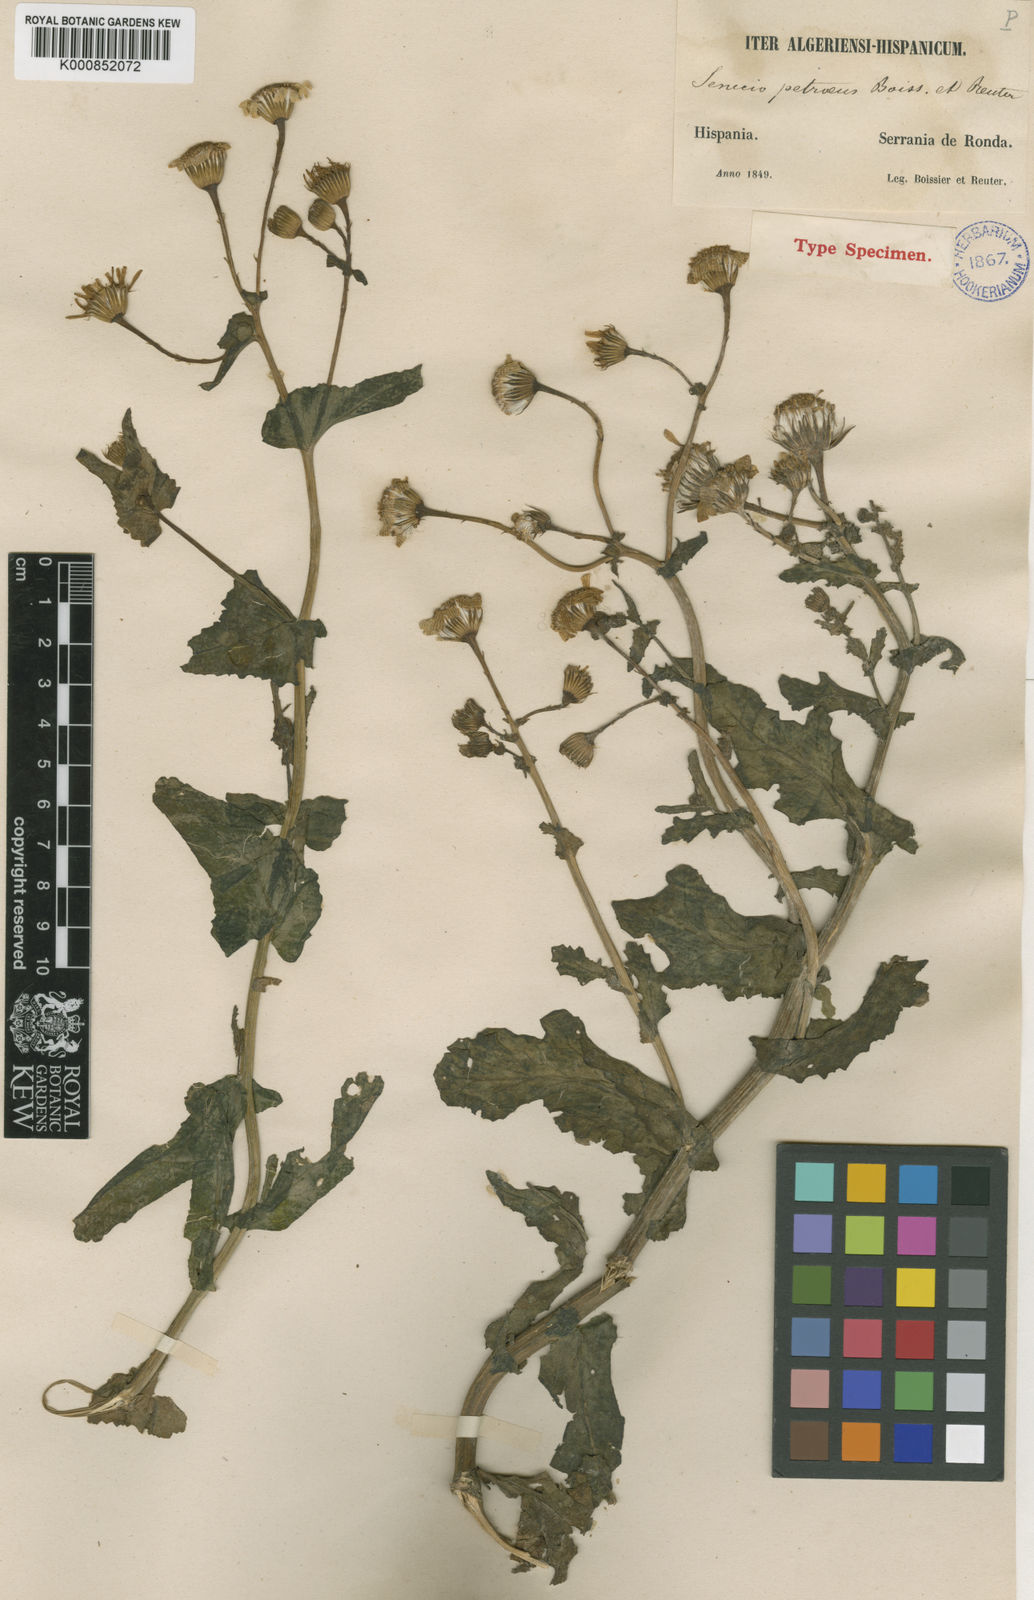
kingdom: Plantae
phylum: Tracheophyta
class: Magnoliopsida
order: Asterales
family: Asteraceae
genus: Senecio
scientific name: Senecio petraeus
